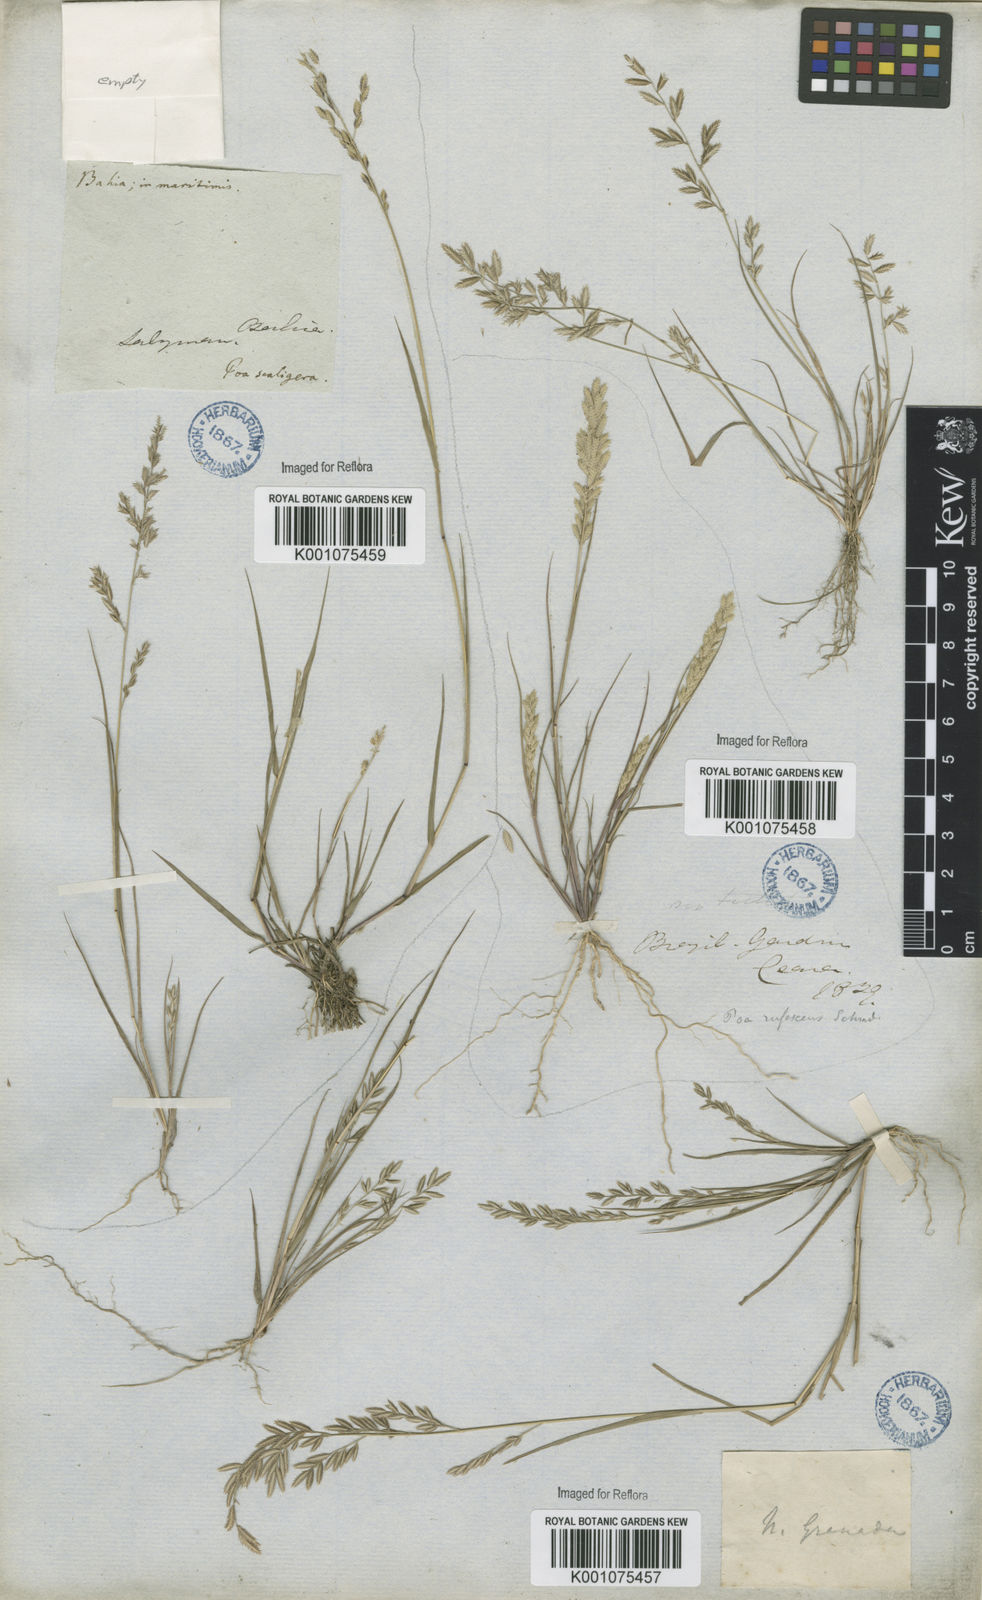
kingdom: Plantae
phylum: Tracheophyta
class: Liliopsida
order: Poales
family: Poaceae
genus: Eragrostis
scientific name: Eragrostis maypurensis
